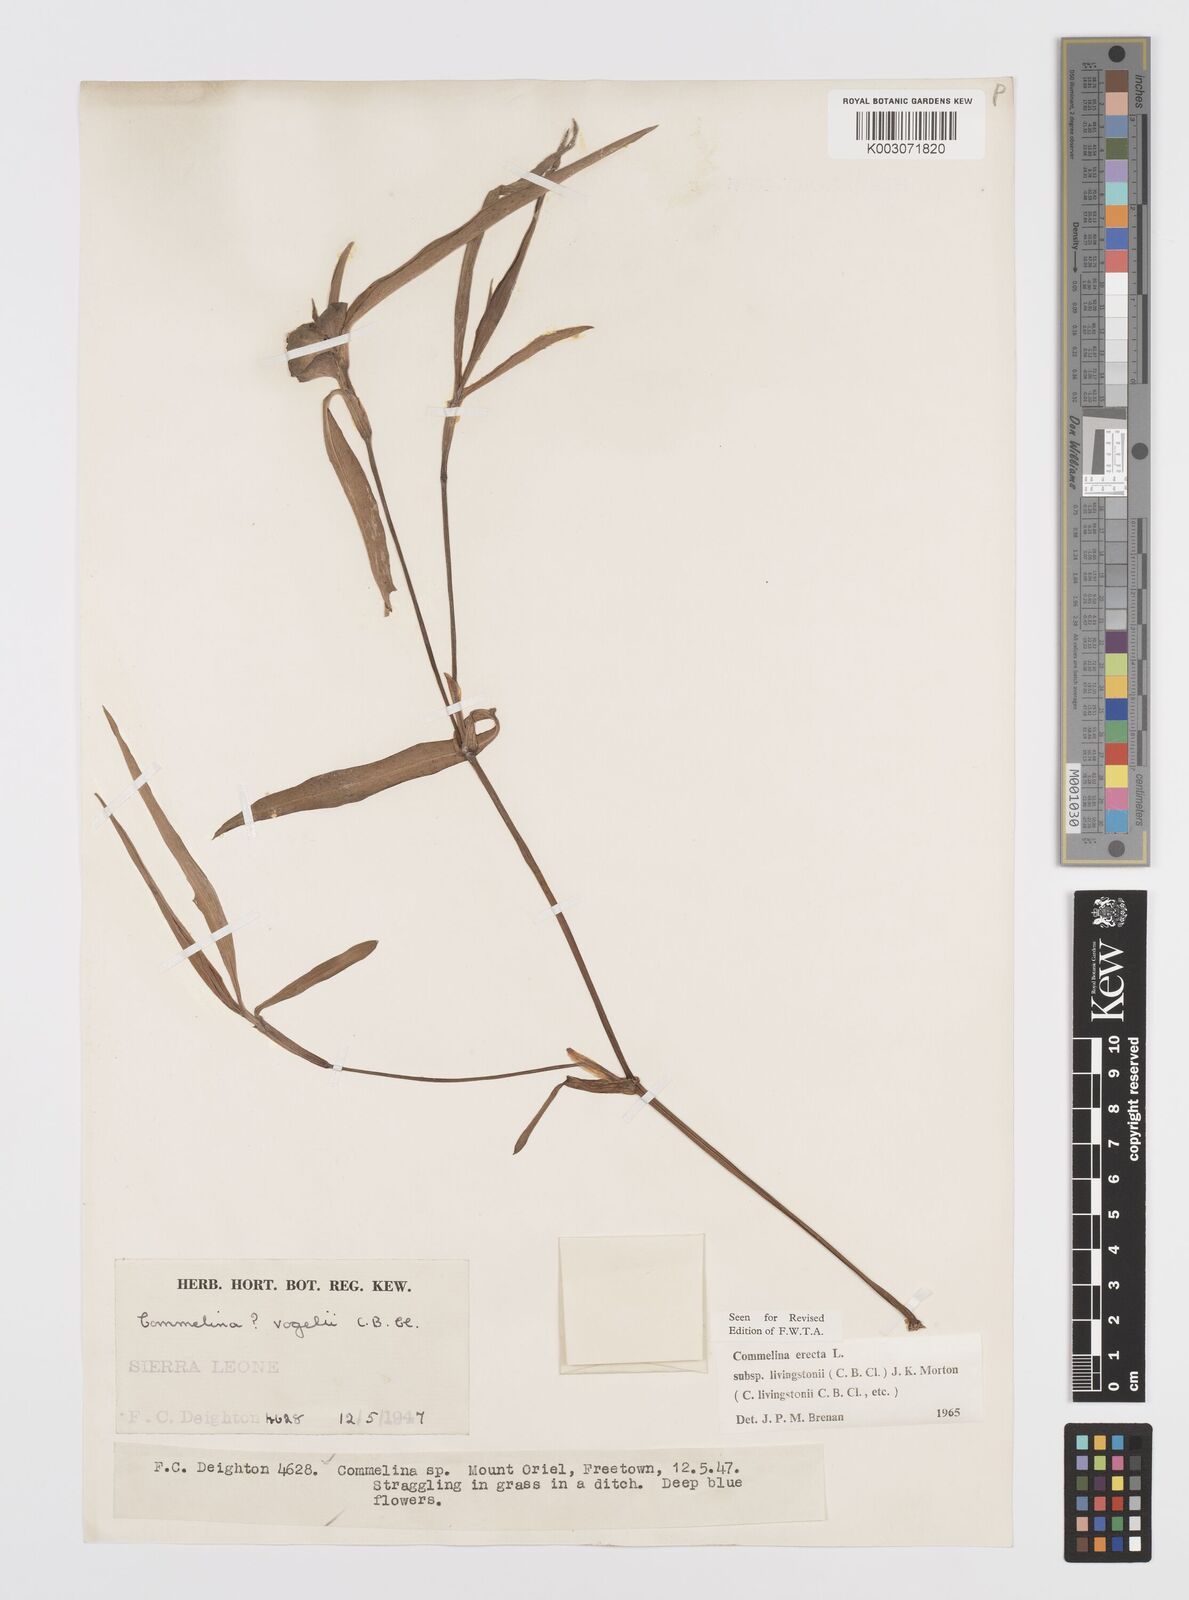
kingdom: Plantae
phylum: Tracheophyta
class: Liliopsida
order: Commelinales
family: Commelinaceae
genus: Commelina
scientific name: Commelina erecta
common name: Blousel blommetjie
